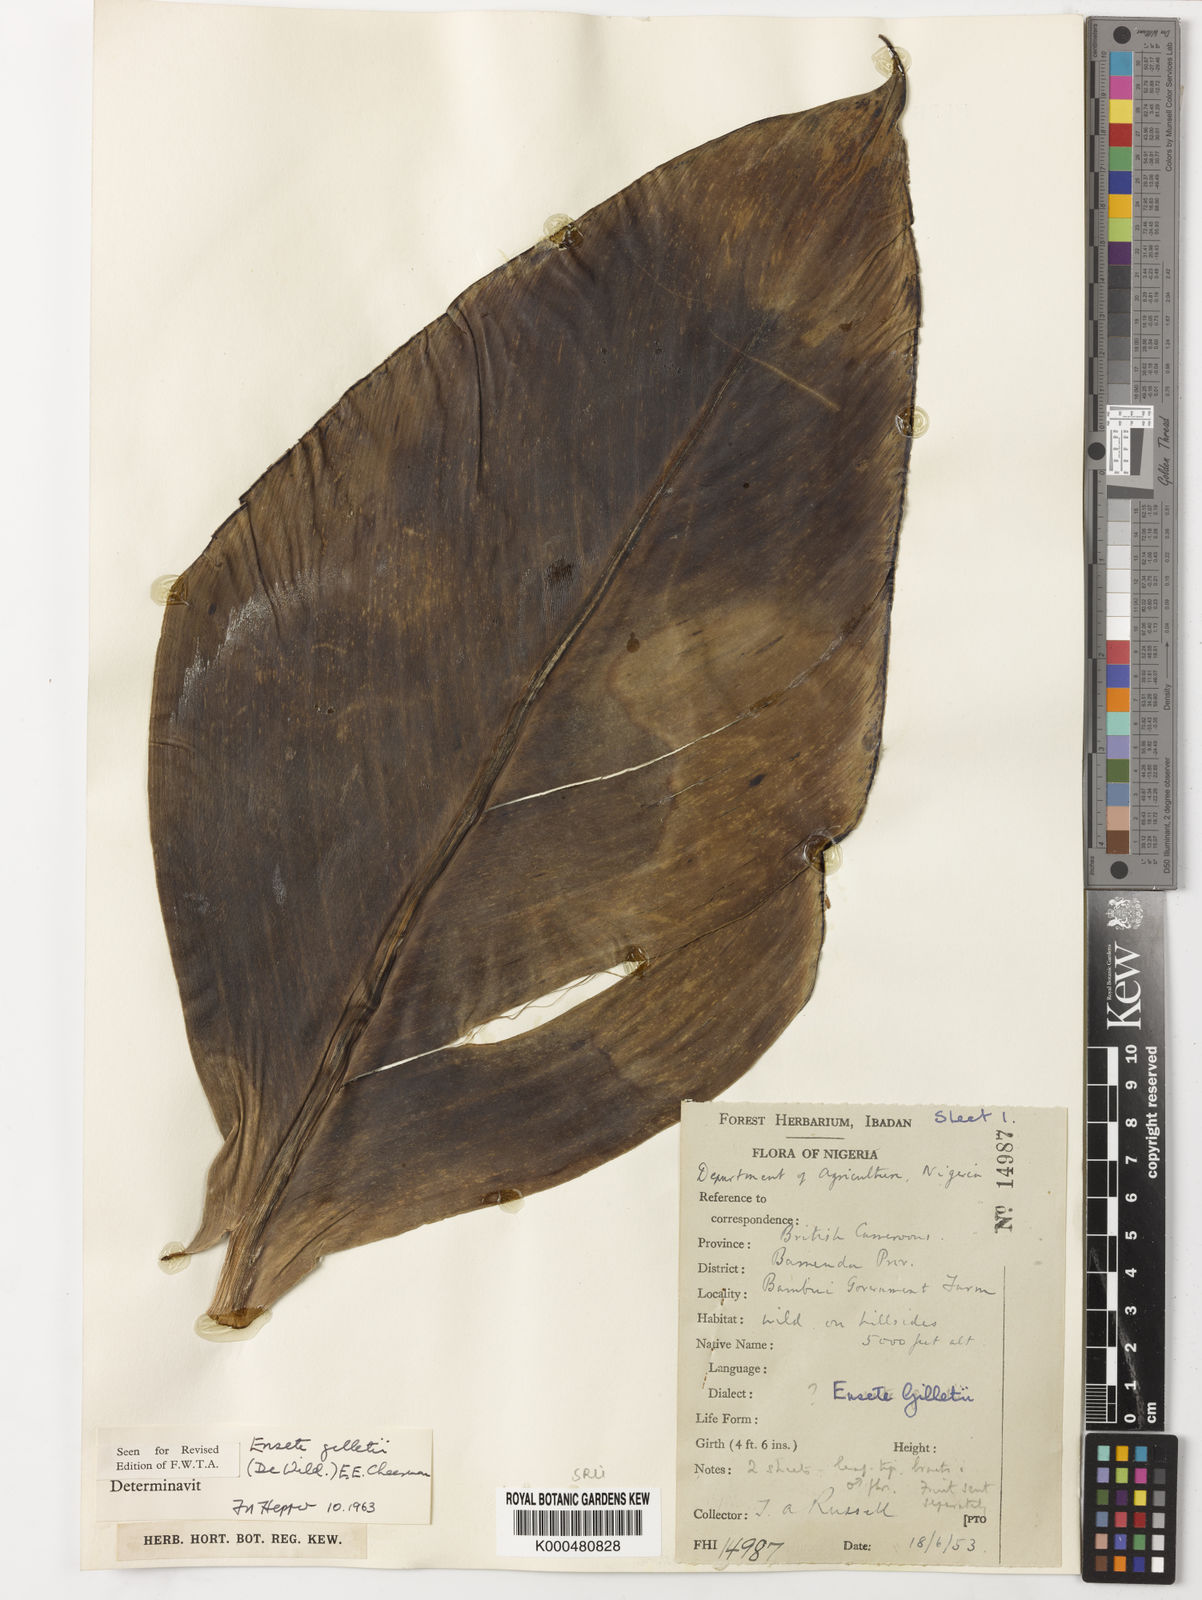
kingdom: Plantae
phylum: Tracheophyta
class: Liliopsida
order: Zingiberales
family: Musaceae
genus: Ensete
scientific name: Ensete livingstonianum
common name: Livingston's banana
